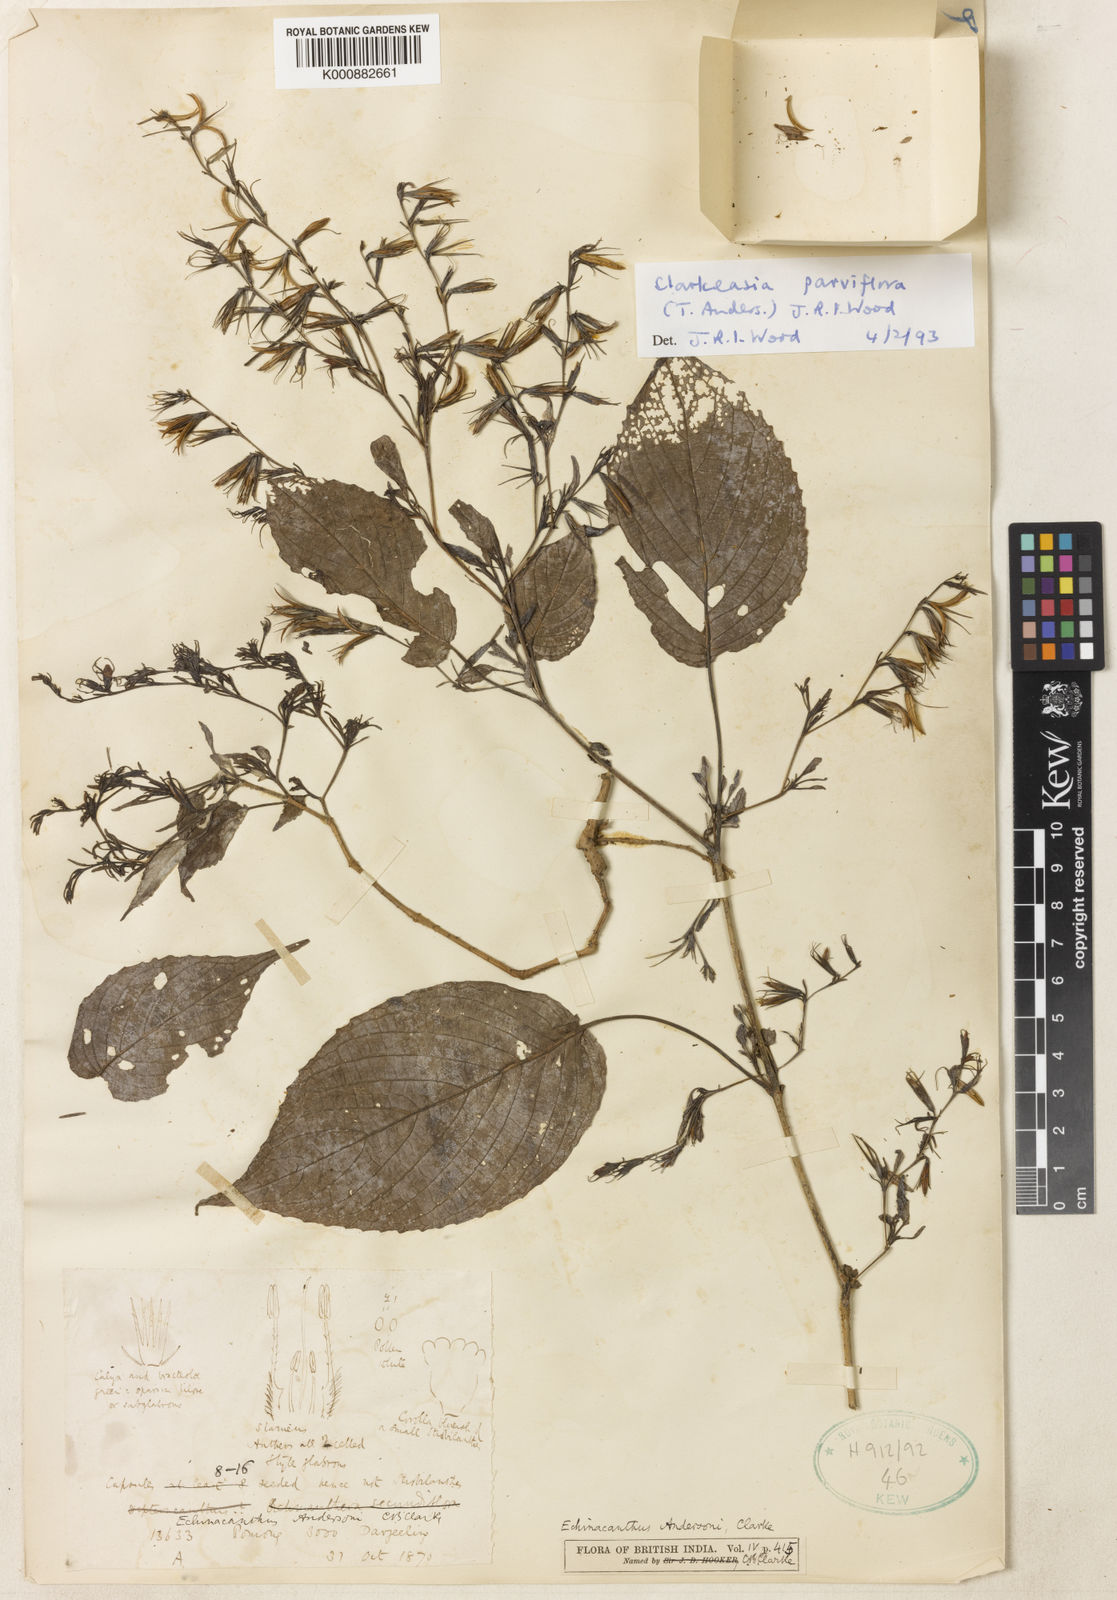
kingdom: Plantae
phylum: Tracheophyta
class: Magnoliopsida
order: Lamiales
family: Acanthaceae
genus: Strobilanthes
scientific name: Strobilanthes violifolia
